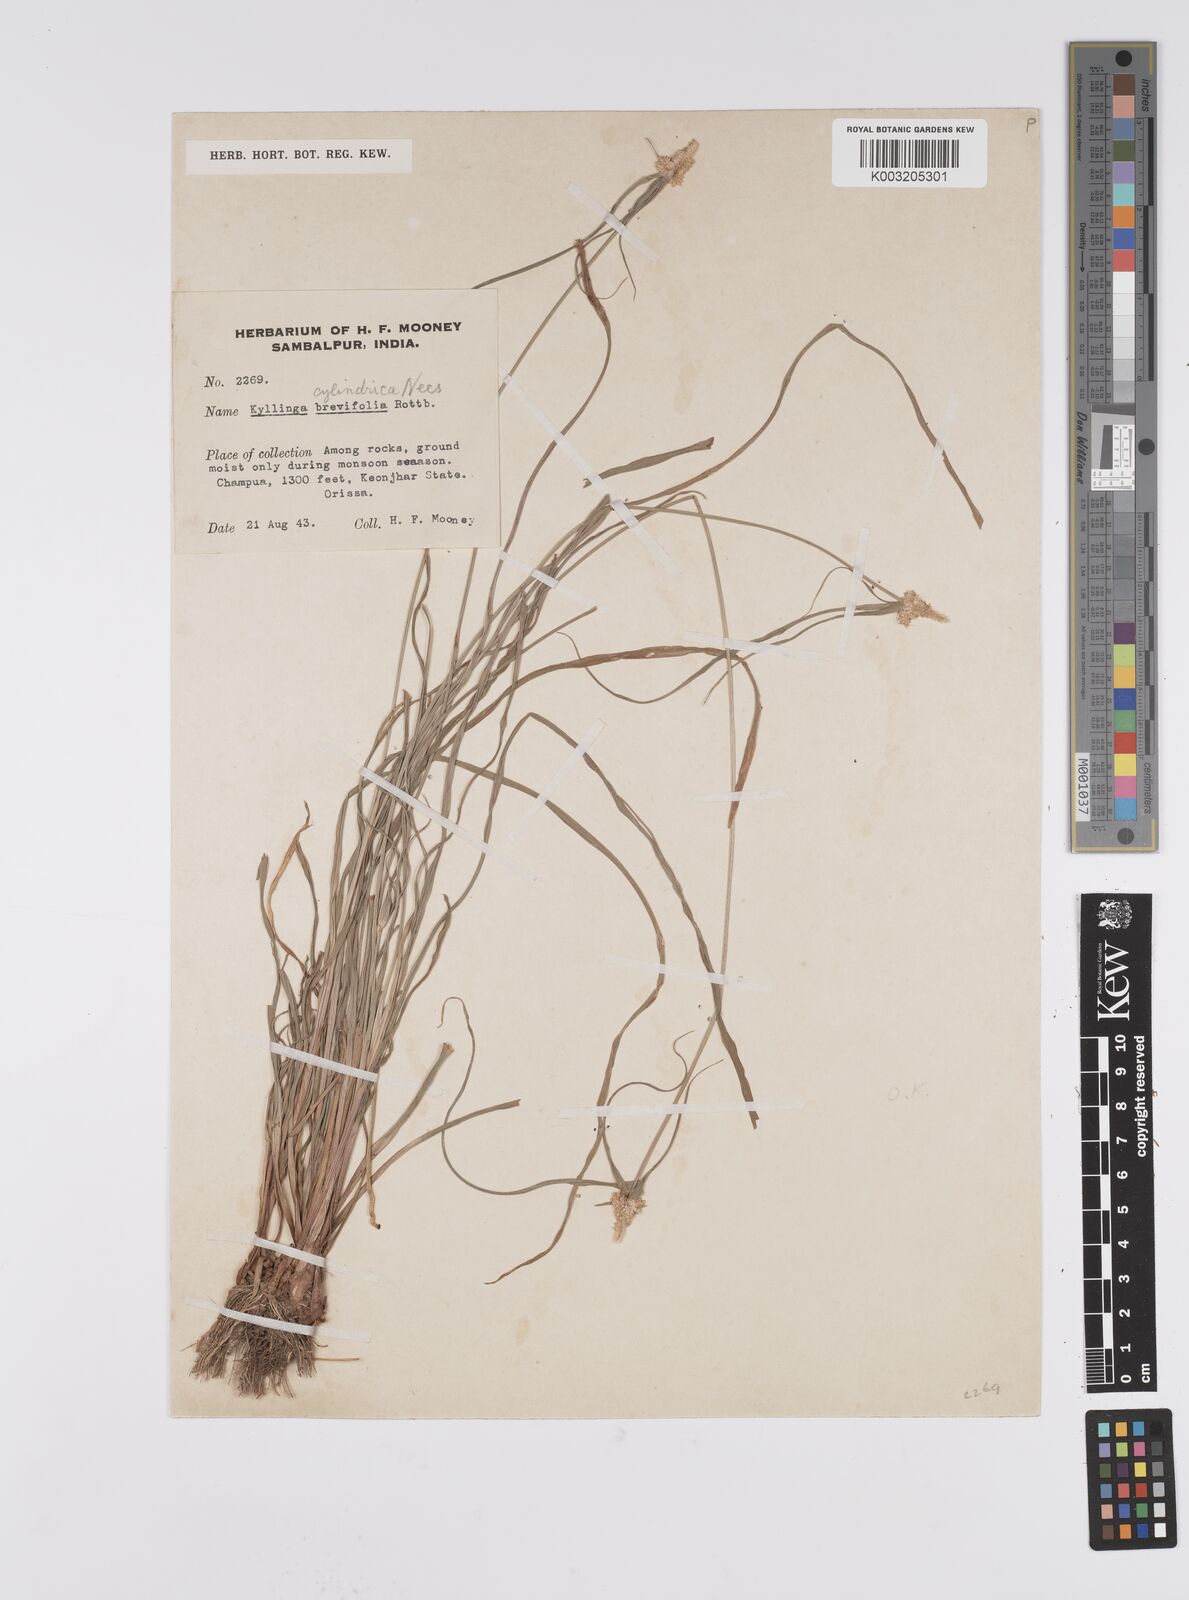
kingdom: Plantae
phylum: Tracheophyta
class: Liliopsida
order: Poales
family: Cyperaceae
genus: Cyperus
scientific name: Cyperus
